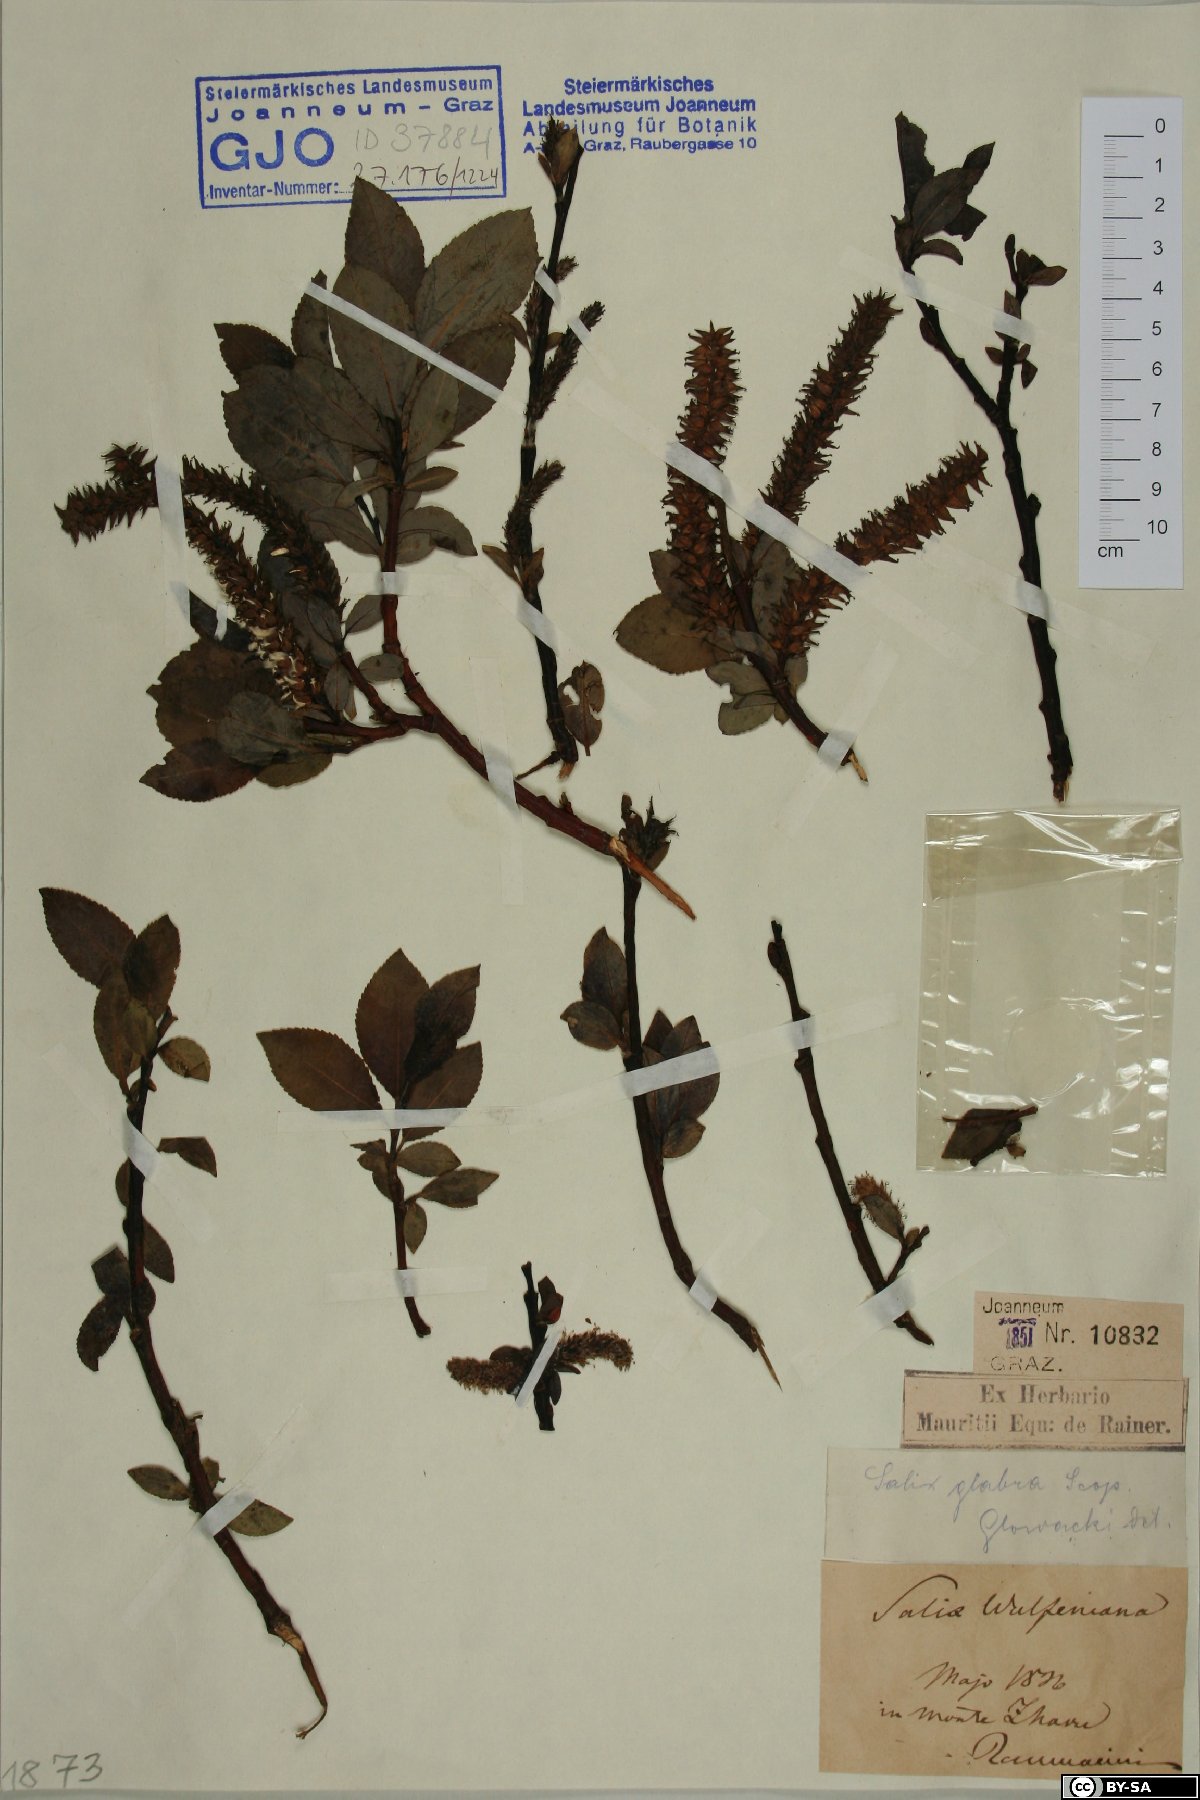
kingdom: Plantae
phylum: Tracheophyta
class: Magnoliopsida
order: Malpighiales
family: Salicaceae
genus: Salix
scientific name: Salix glabra
